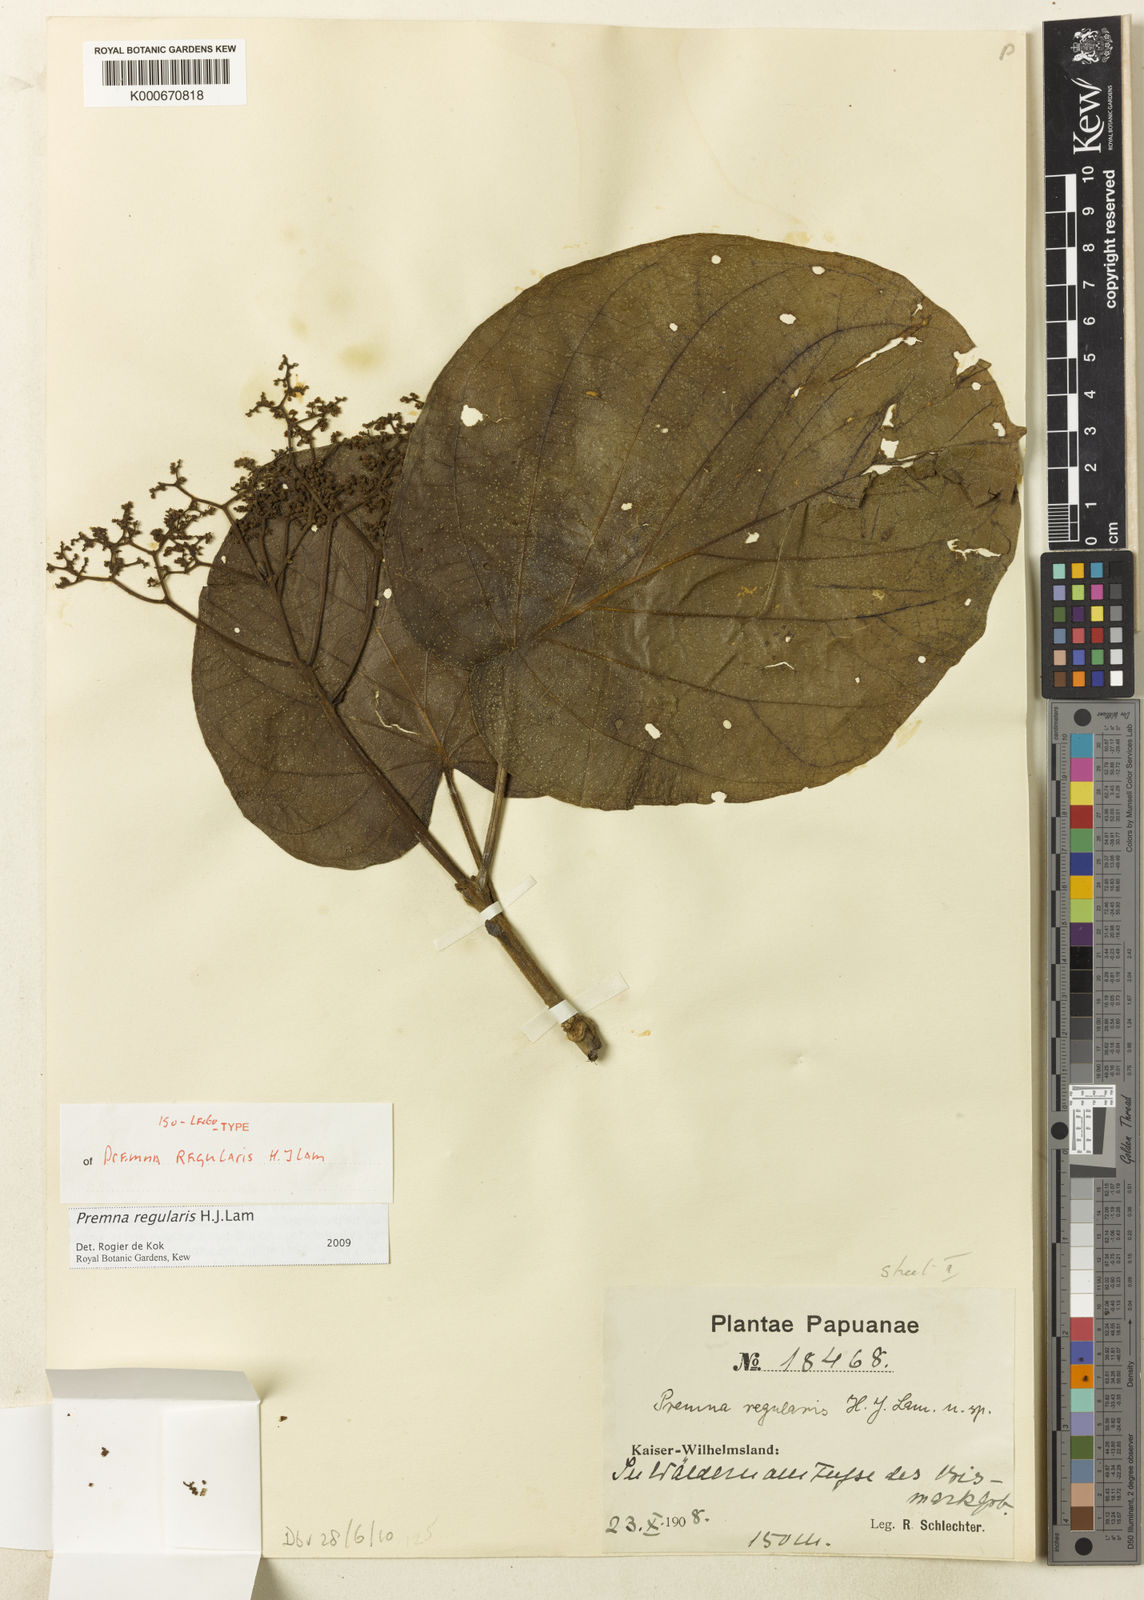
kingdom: Plantae
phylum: Tracheophyta
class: Magnoliopsida
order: Lamiales
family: Lamiaceae
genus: Premna
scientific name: Premna regularis
